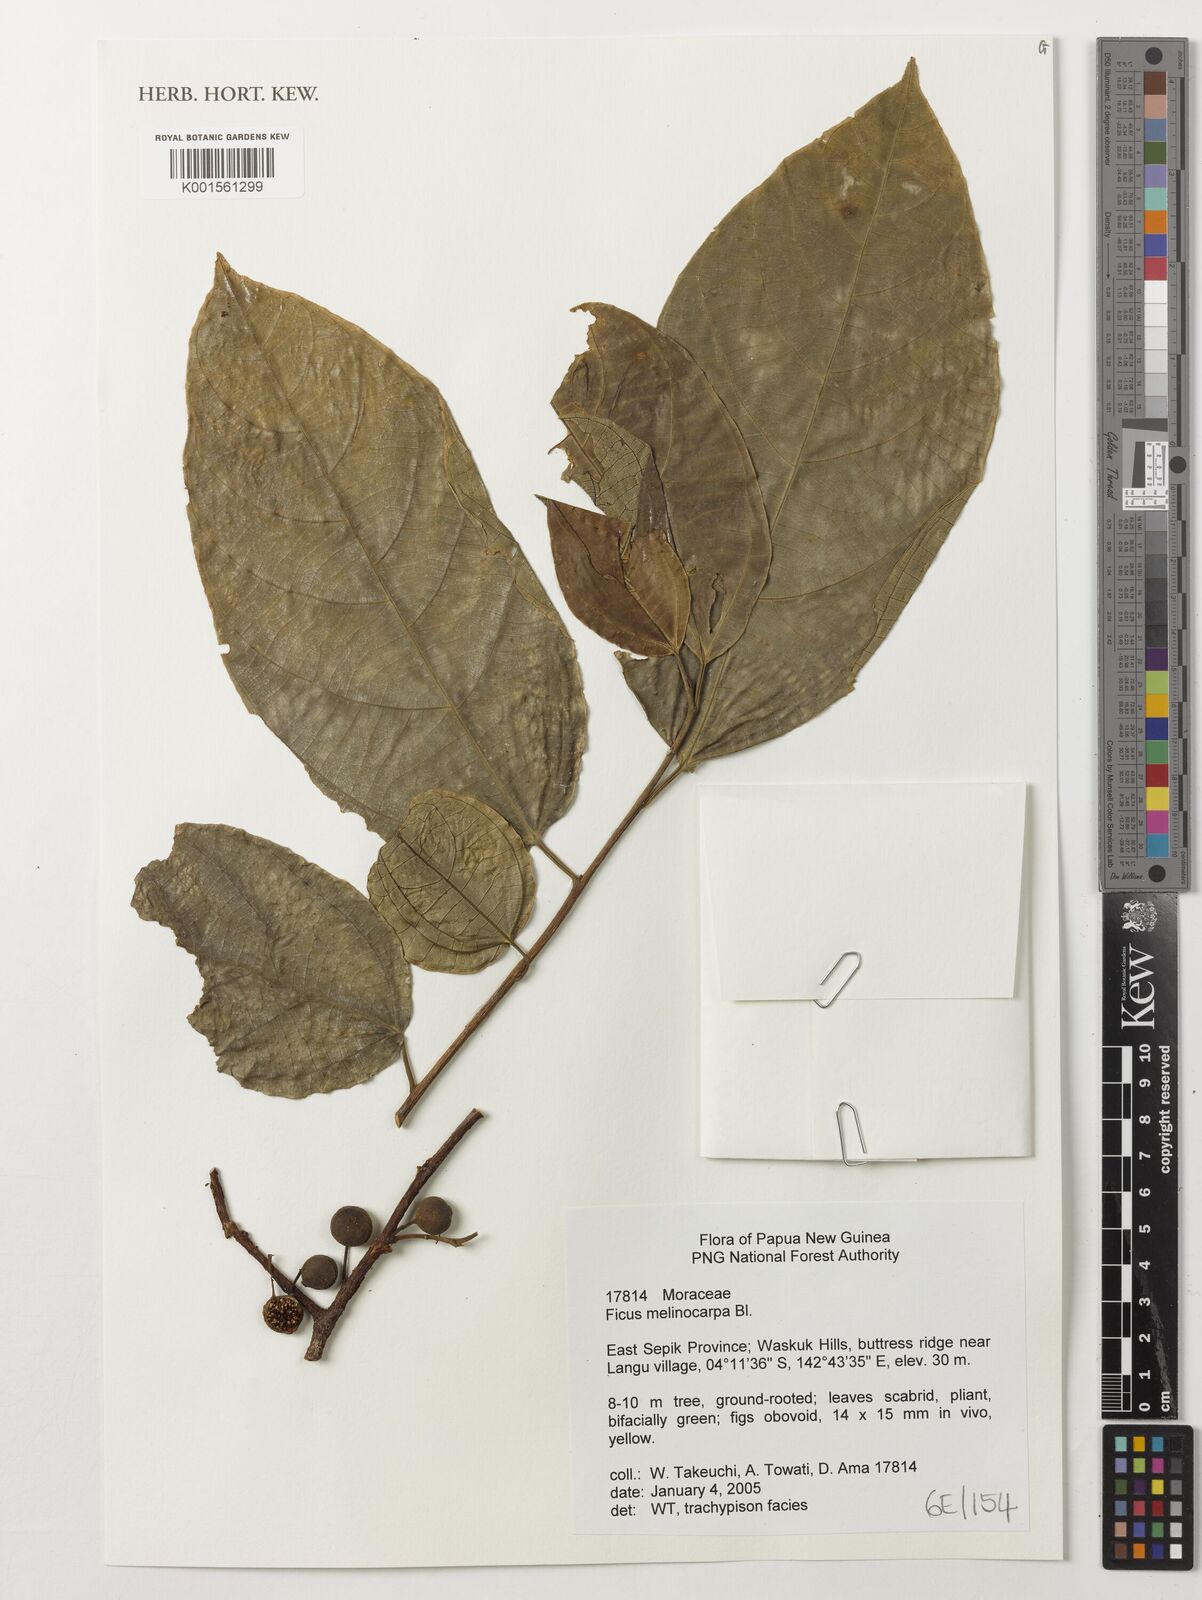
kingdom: Plantae
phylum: Tracheophyta
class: Magnoliopsida
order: Rosales
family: Moraceae
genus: Ficus
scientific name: Ficus melinocarpa
